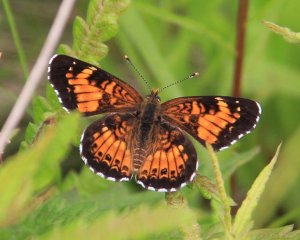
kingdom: Animalia
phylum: Arthropoda
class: Insecta
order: Lepidoptera
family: Nymphalidae
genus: Chlosyne
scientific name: Chlosyne harrisii
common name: Harris's Checkerspot
